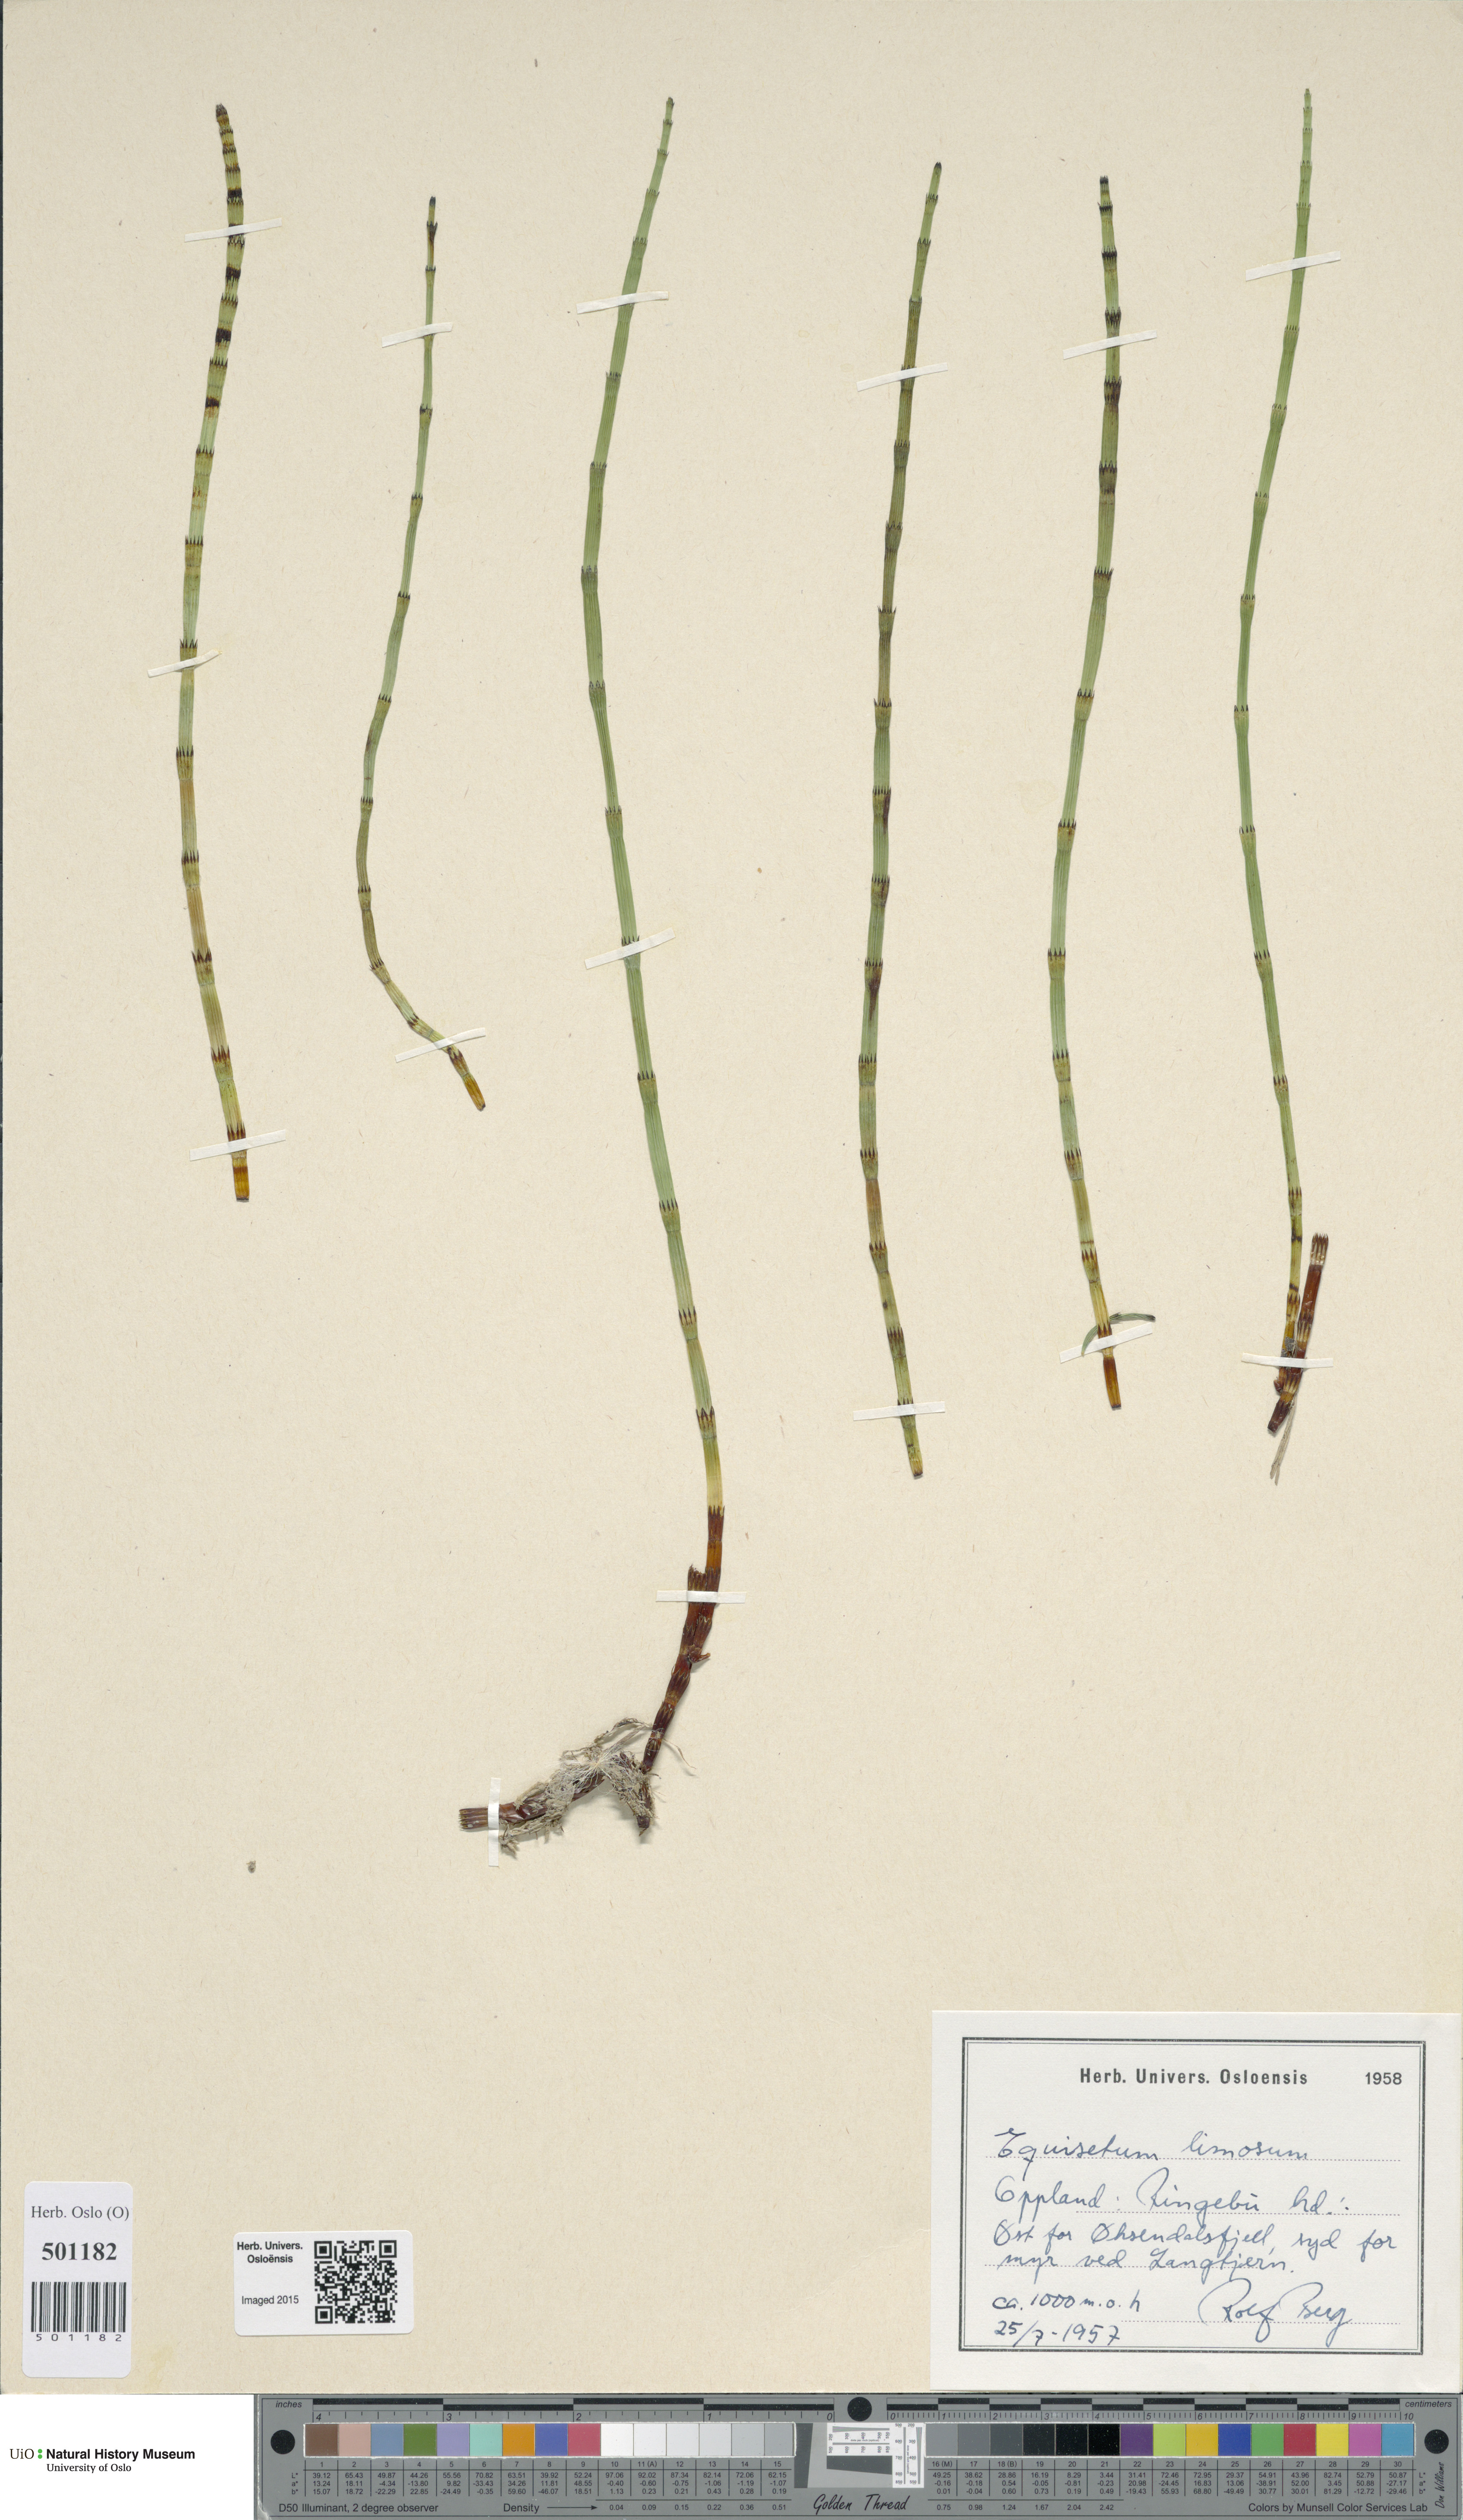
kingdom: Plantae
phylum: Tracheophyta
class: Polypodiopsida
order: Equisetales
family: Equisetaceae
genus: Equisetum
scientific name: Equisetum fluviatile
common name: Water horsetail
